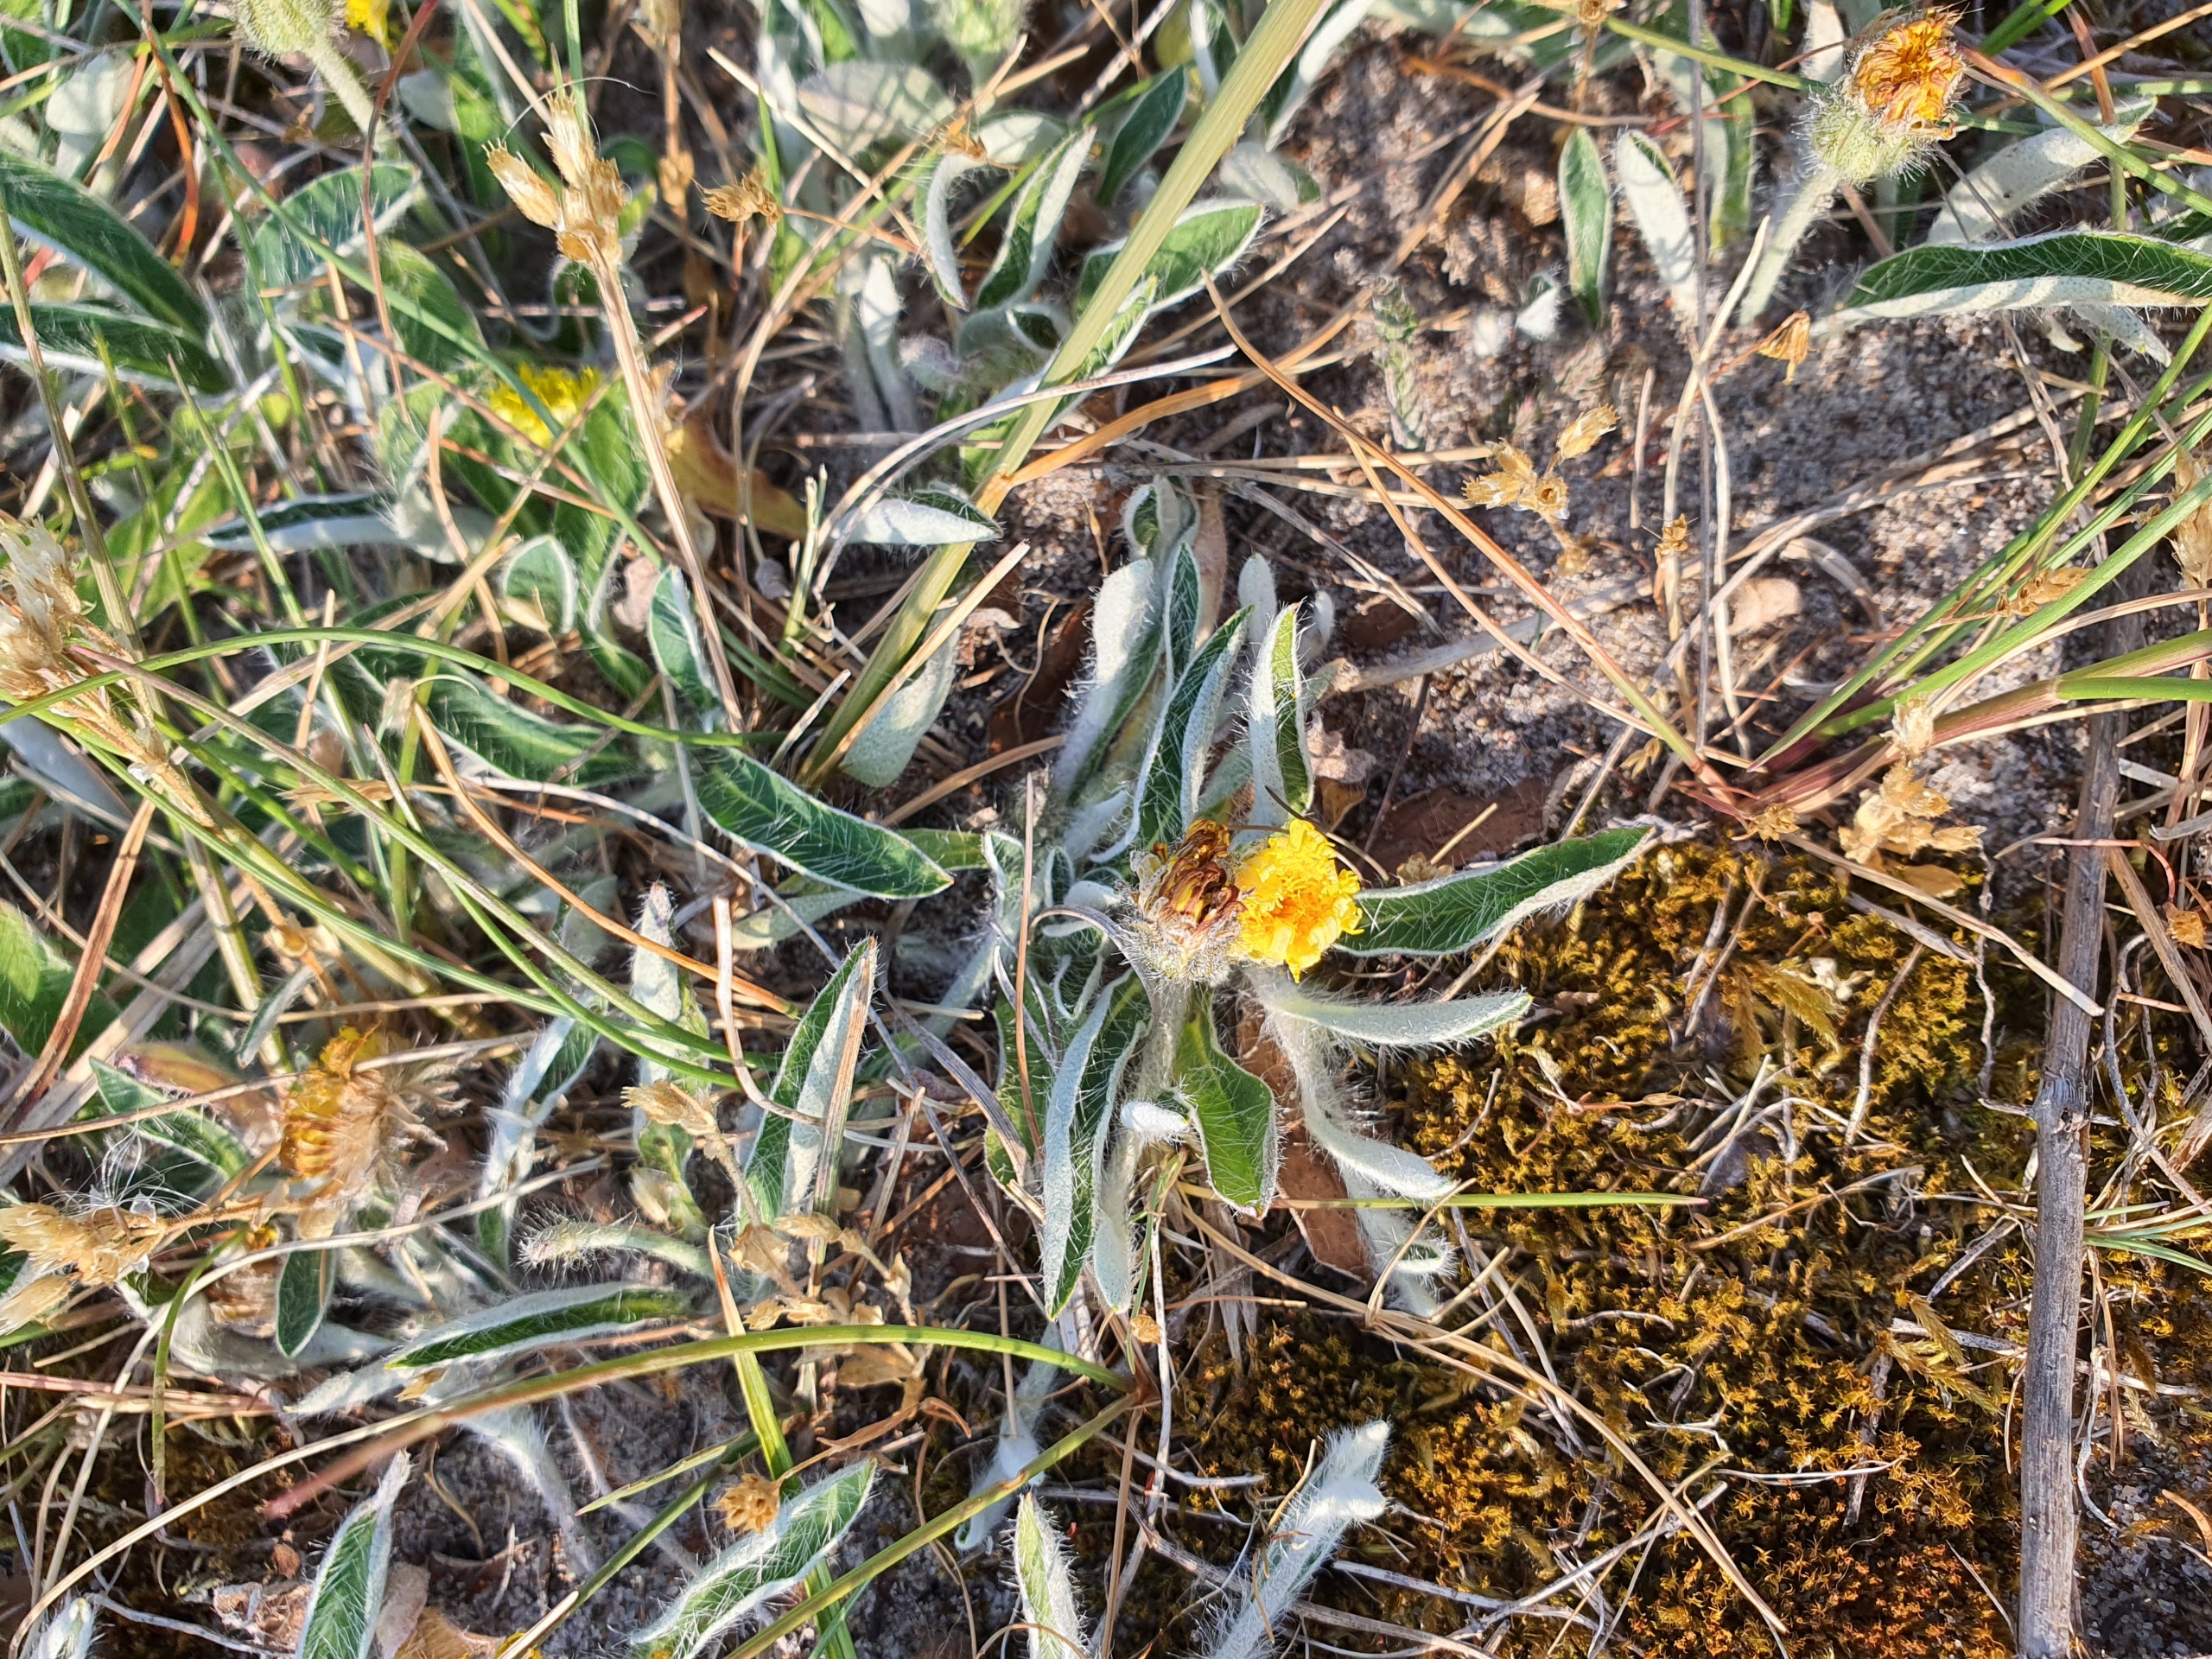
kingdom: Plantae
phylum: Tracheophyta
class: Magnoliopsida
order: Asterales
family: Asteraceae
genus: Pilosella
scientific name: Pilosella officinarum
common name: Håret høgeurt
